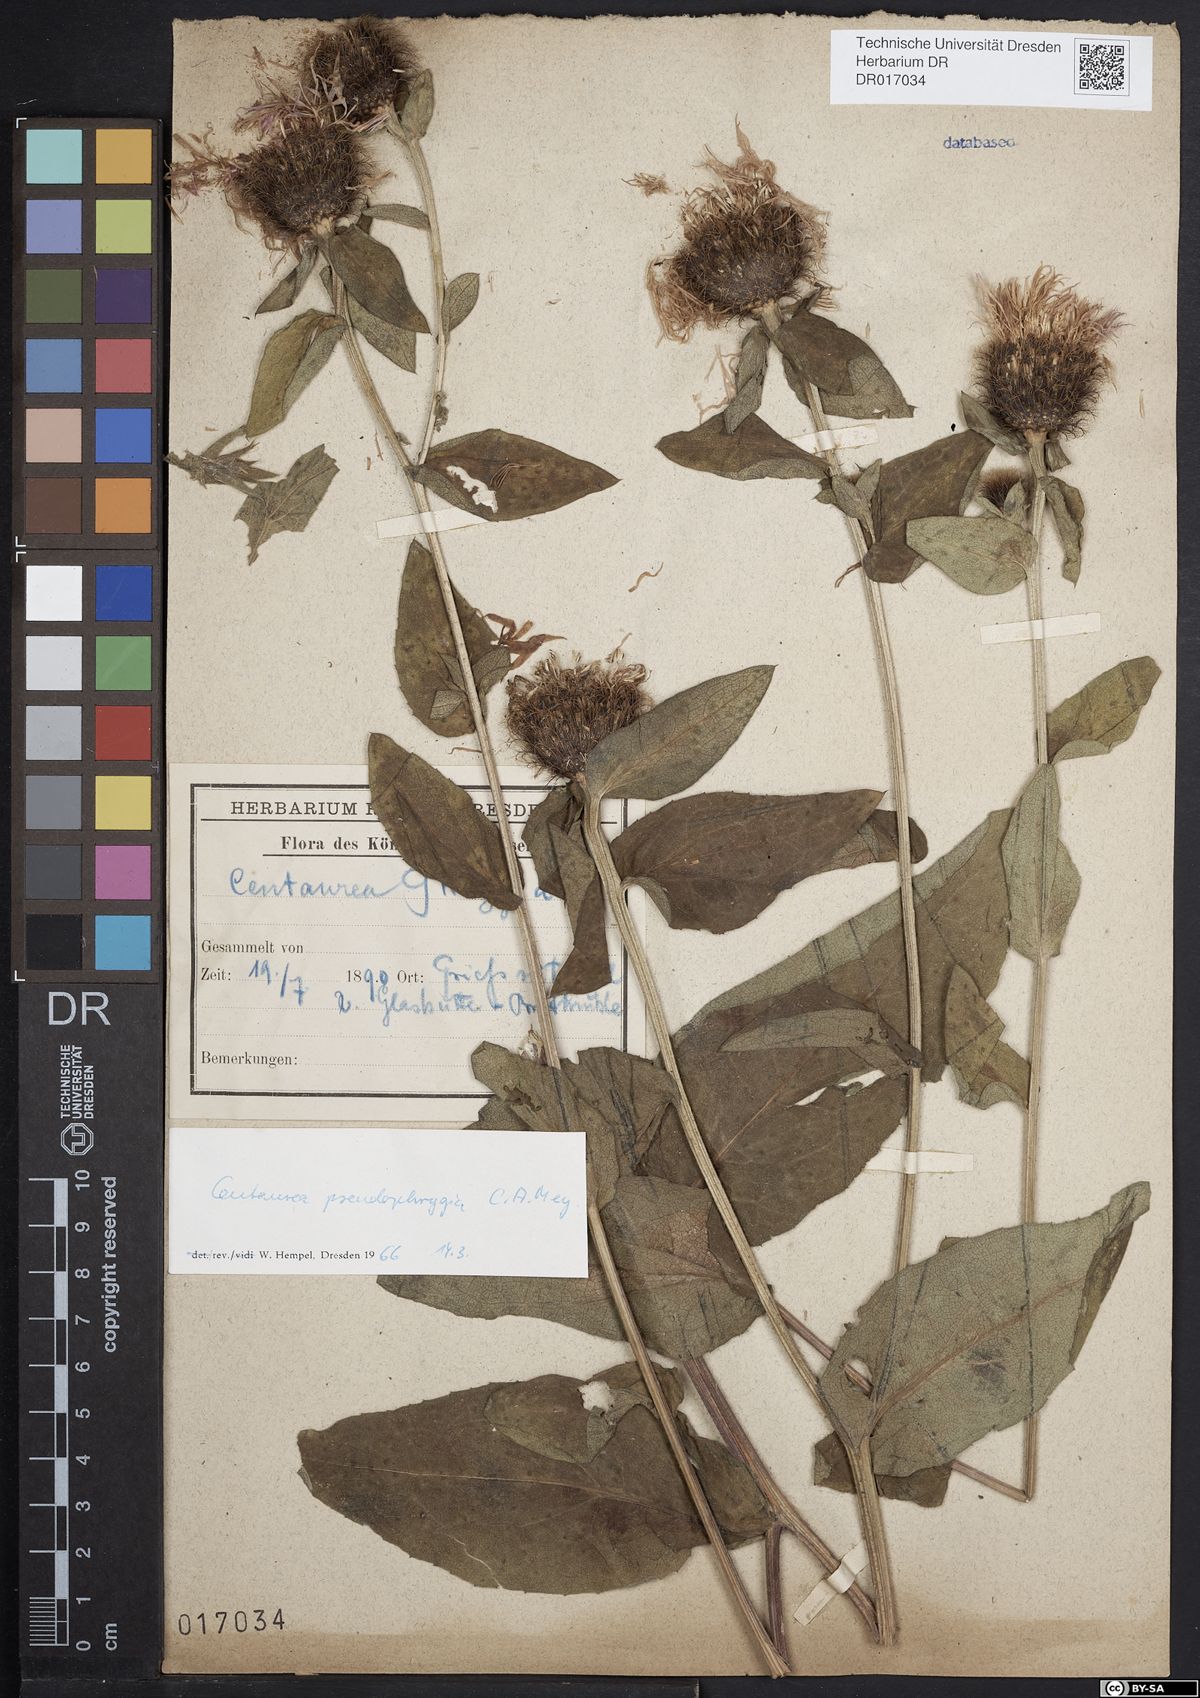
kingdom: Plantae
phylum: Tracheophyta
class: Magnoliopsida
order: Asterales
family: Asteraceae
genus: Centaurea
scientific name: Centaurea pseudophrygia
